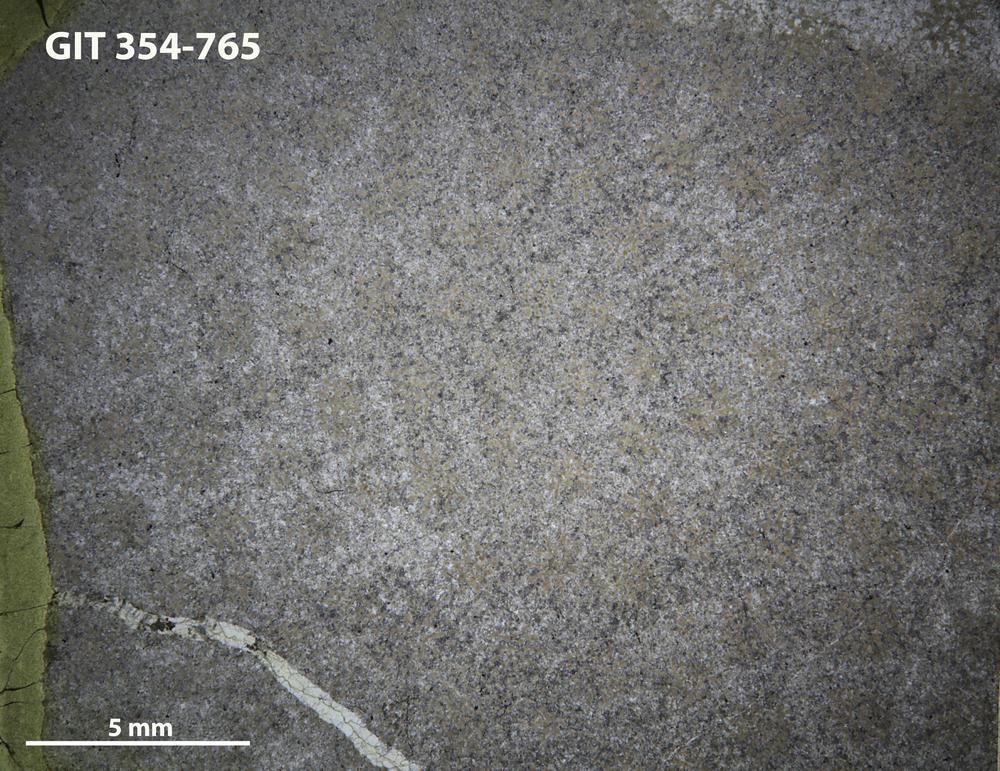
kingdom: Animalia
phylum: Porifera
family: Pseudolabechiidae
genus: Pseudolabechia
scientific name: Pseudolabechia
